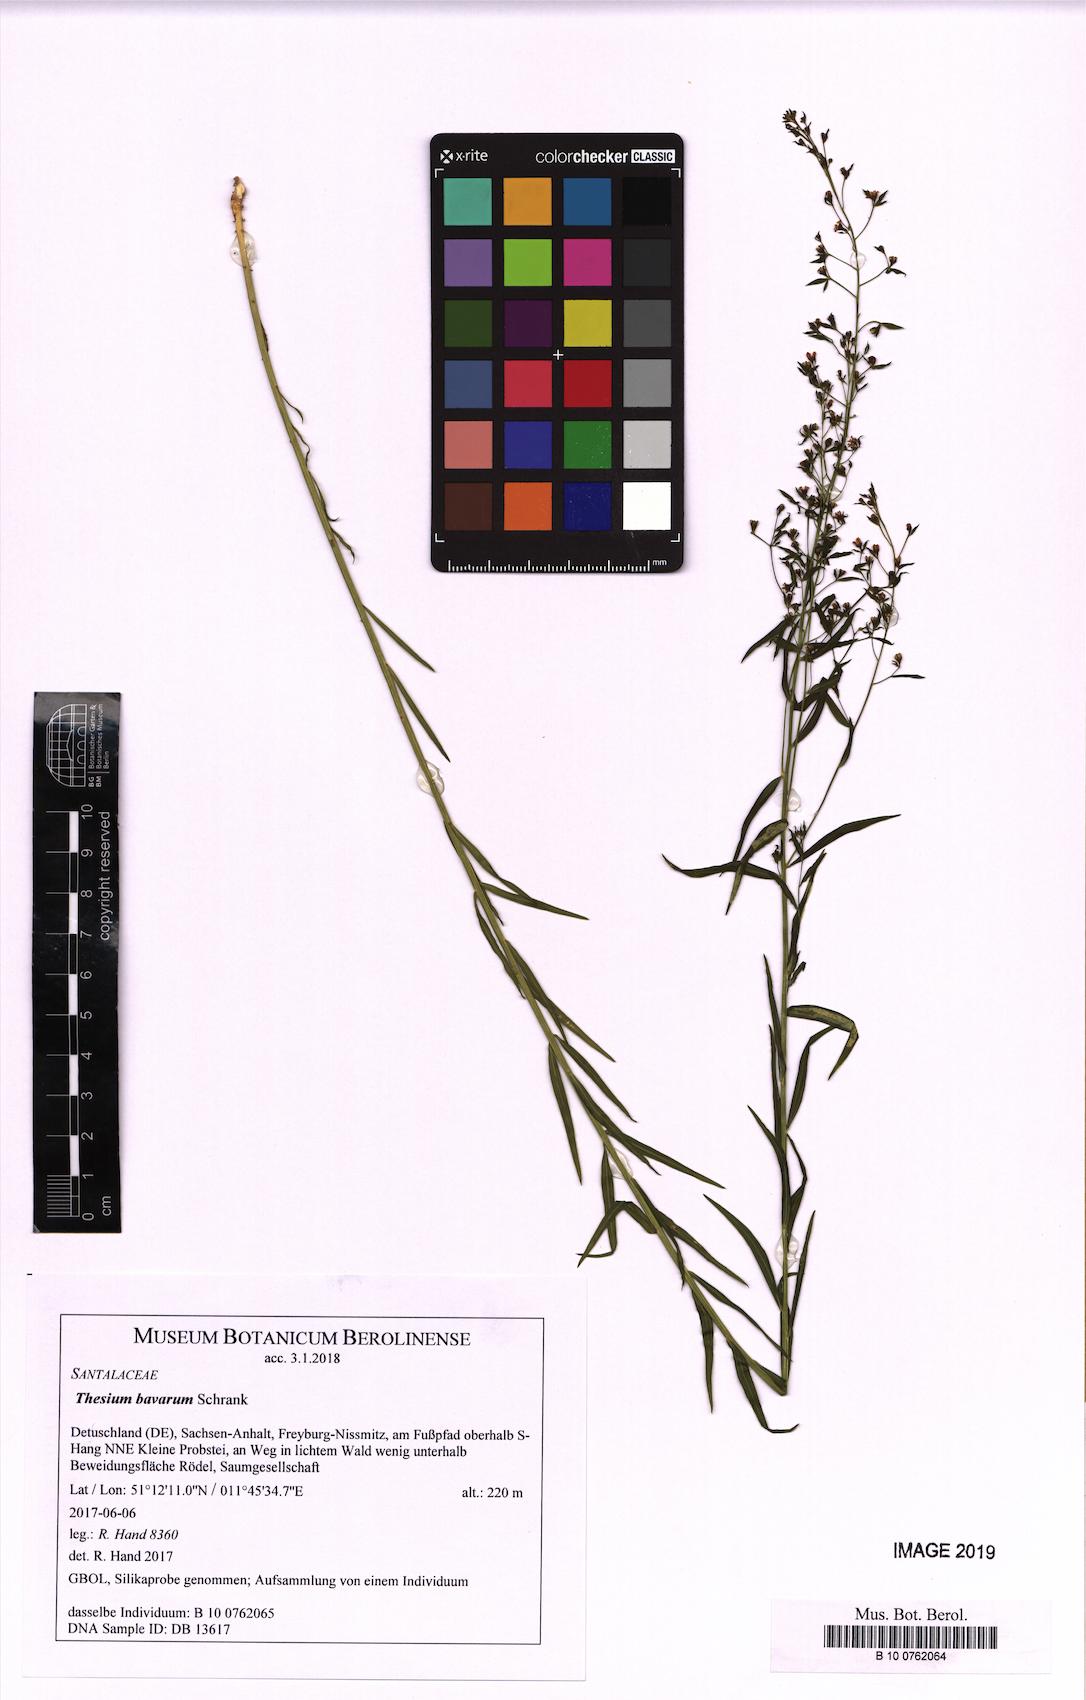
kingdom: Plantae
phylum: Tracheophyta
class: Magnoliopsida
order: Santalales
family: Thesiaceae
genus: Thesium
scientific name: Thesium bavarum
